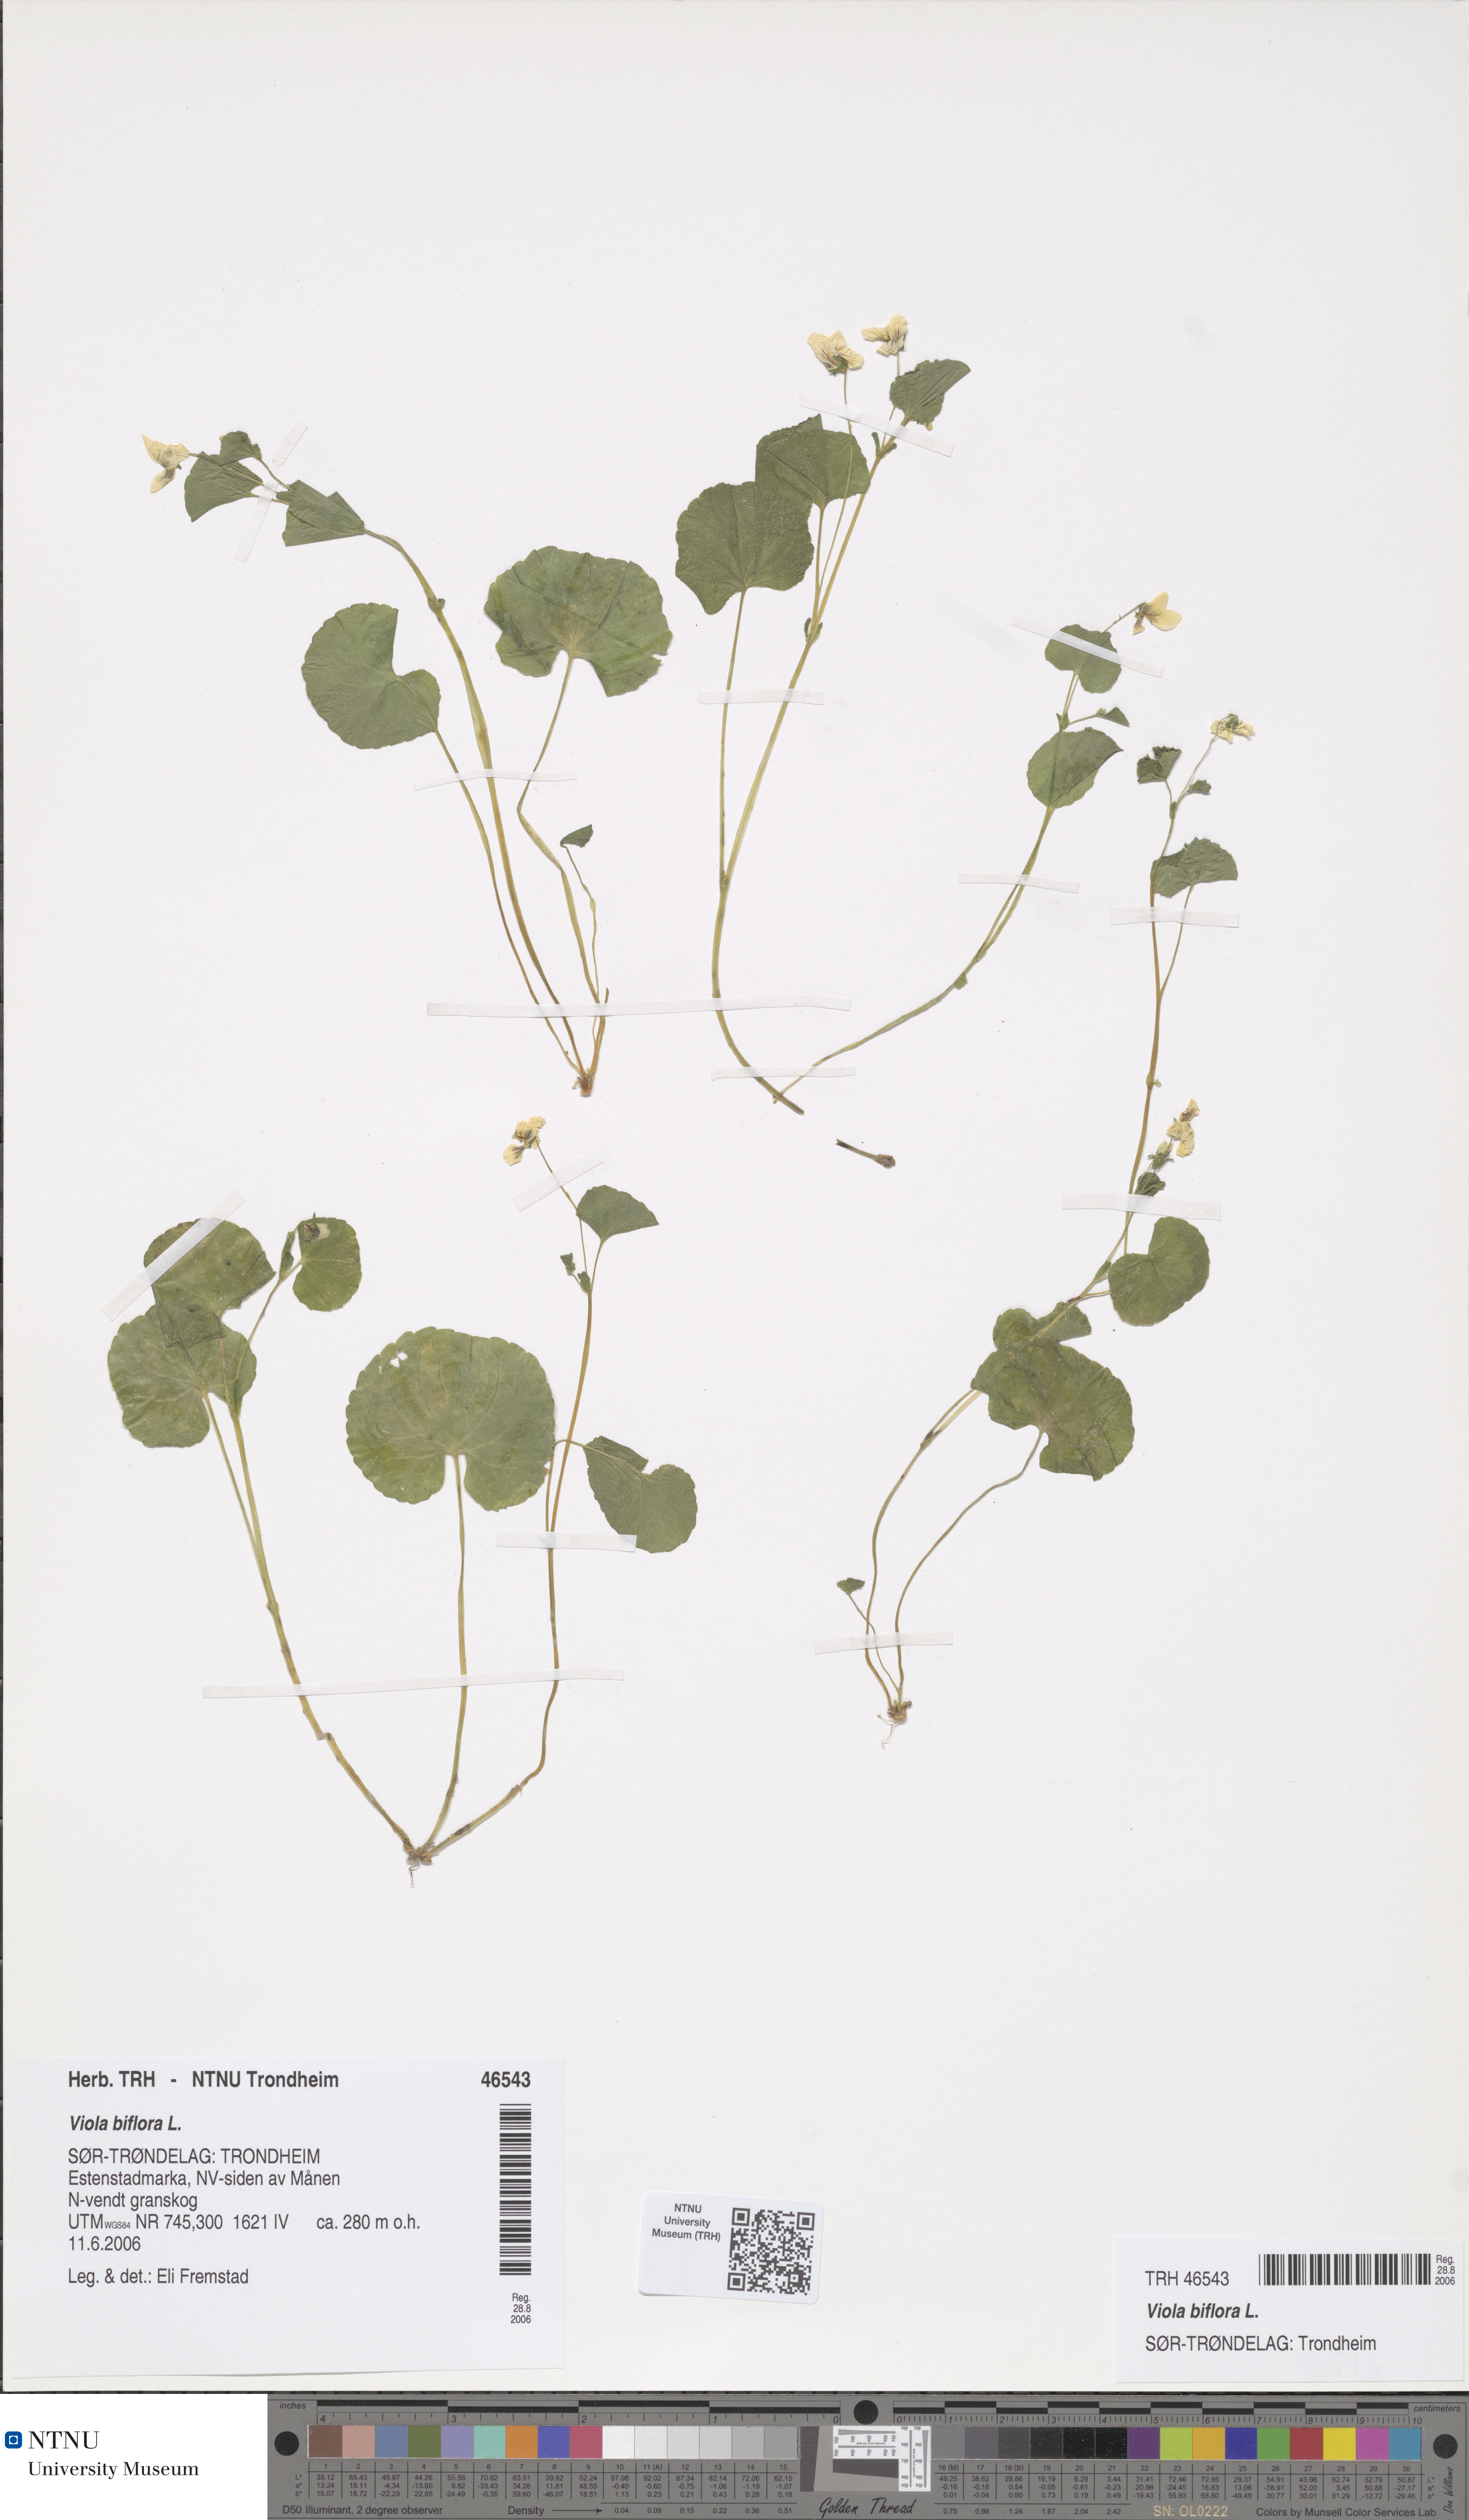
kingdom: Plantae
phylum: Tracheophyta
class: Magnoliopsida
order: Malpighiales
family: Violaceae
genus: Viola
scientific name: Viola biflora
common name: Alpine yellow violet
